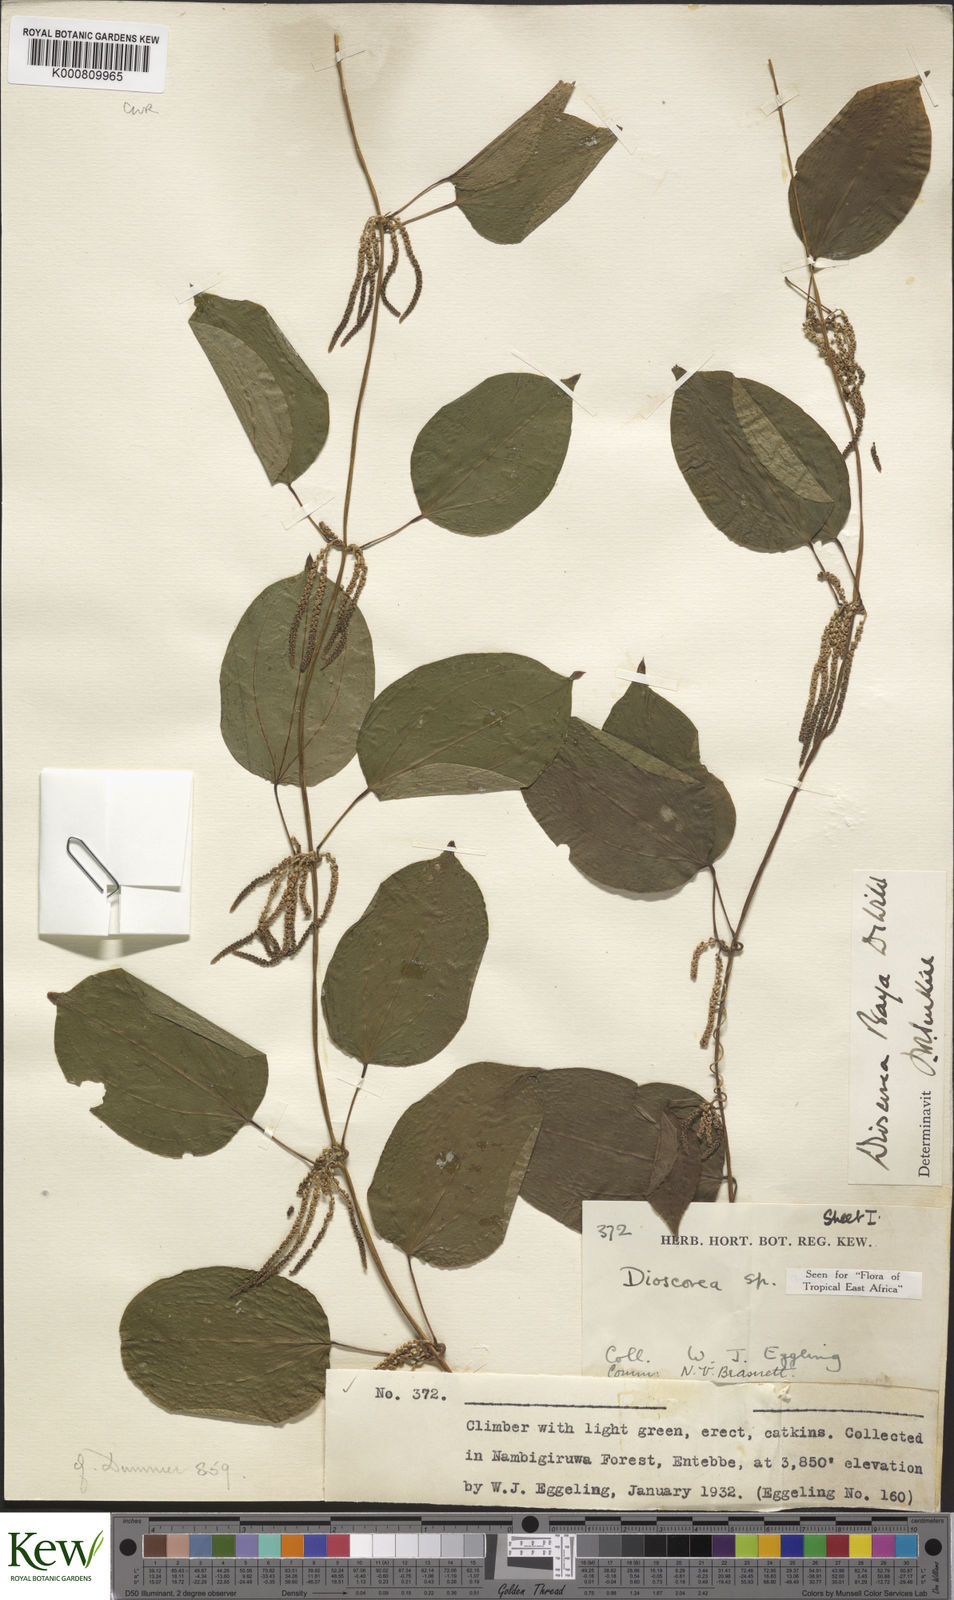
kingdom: Plantae
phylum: Tracheophyta
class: Liliopsida
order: Dioscoreales
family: Dioscoreaceae
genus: Dioscorea
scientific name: Dioscorea baya
